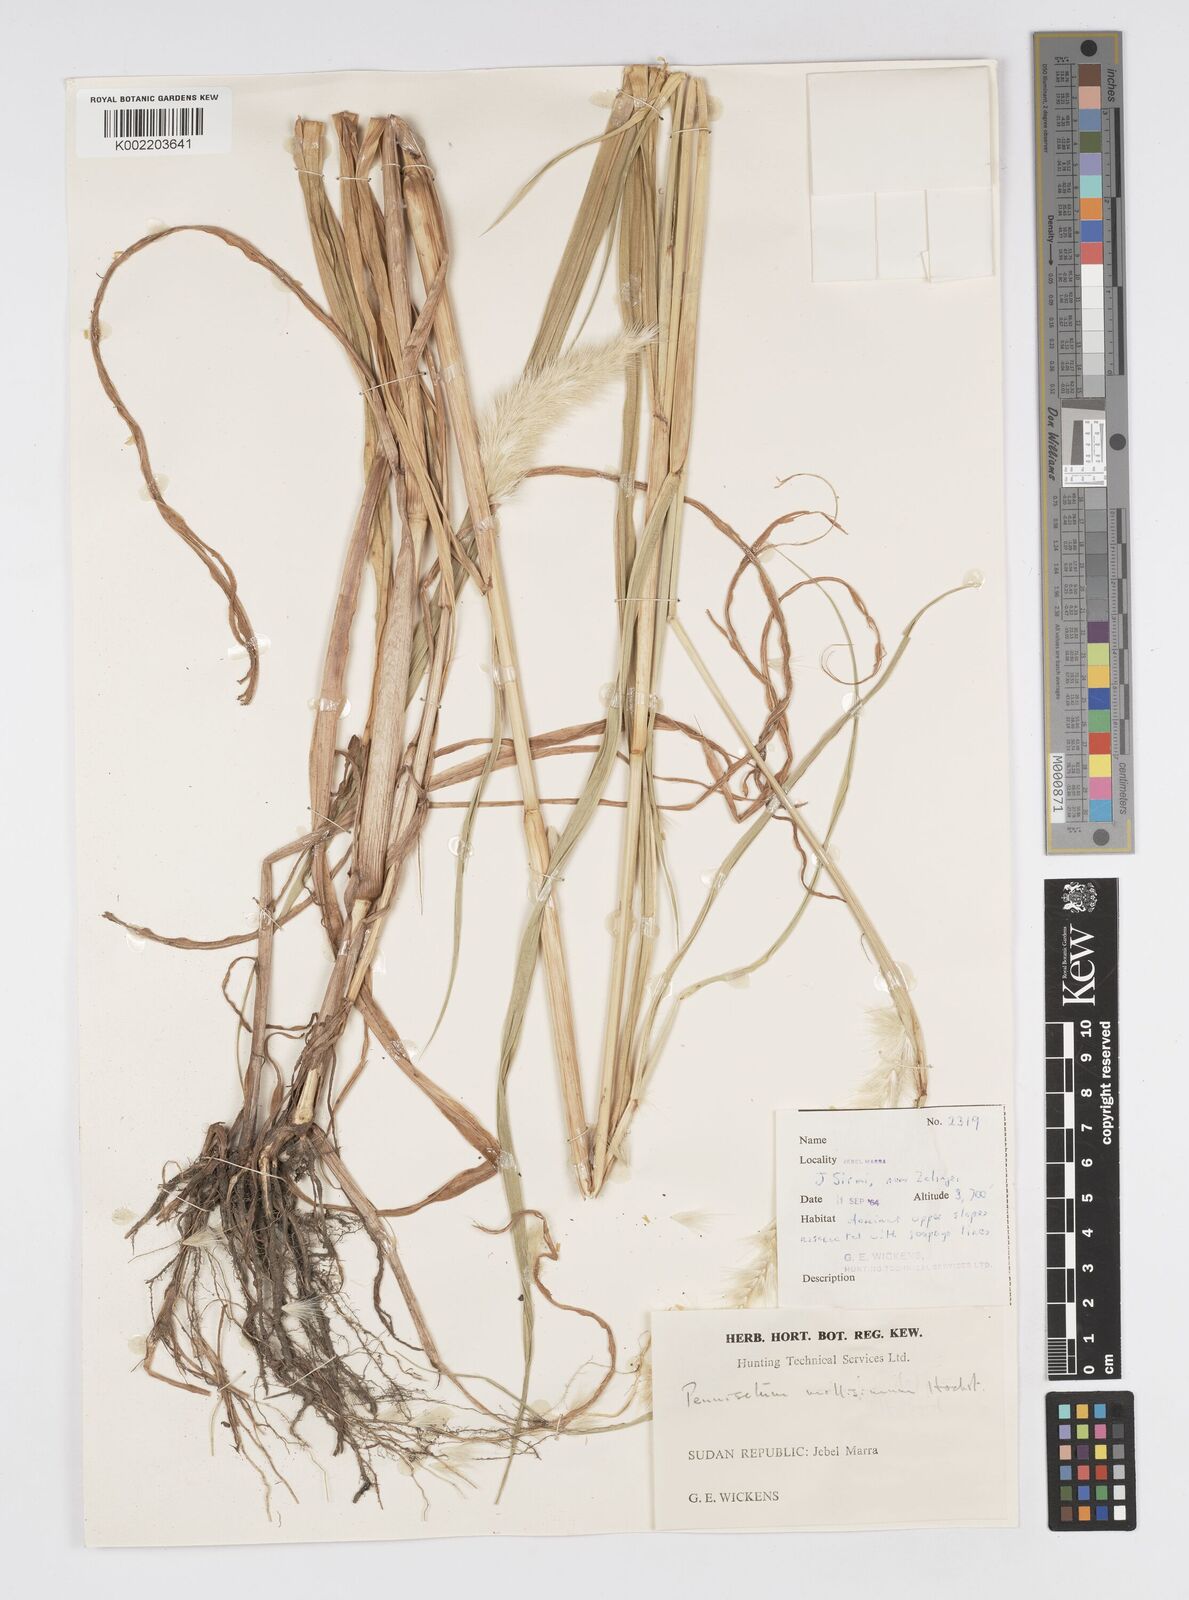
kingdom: Plantae
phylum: Tracheophyta
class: Liliopsida
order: Poales
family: Poaceae
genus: Cenchrus
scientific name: Cenchrus violaceus
